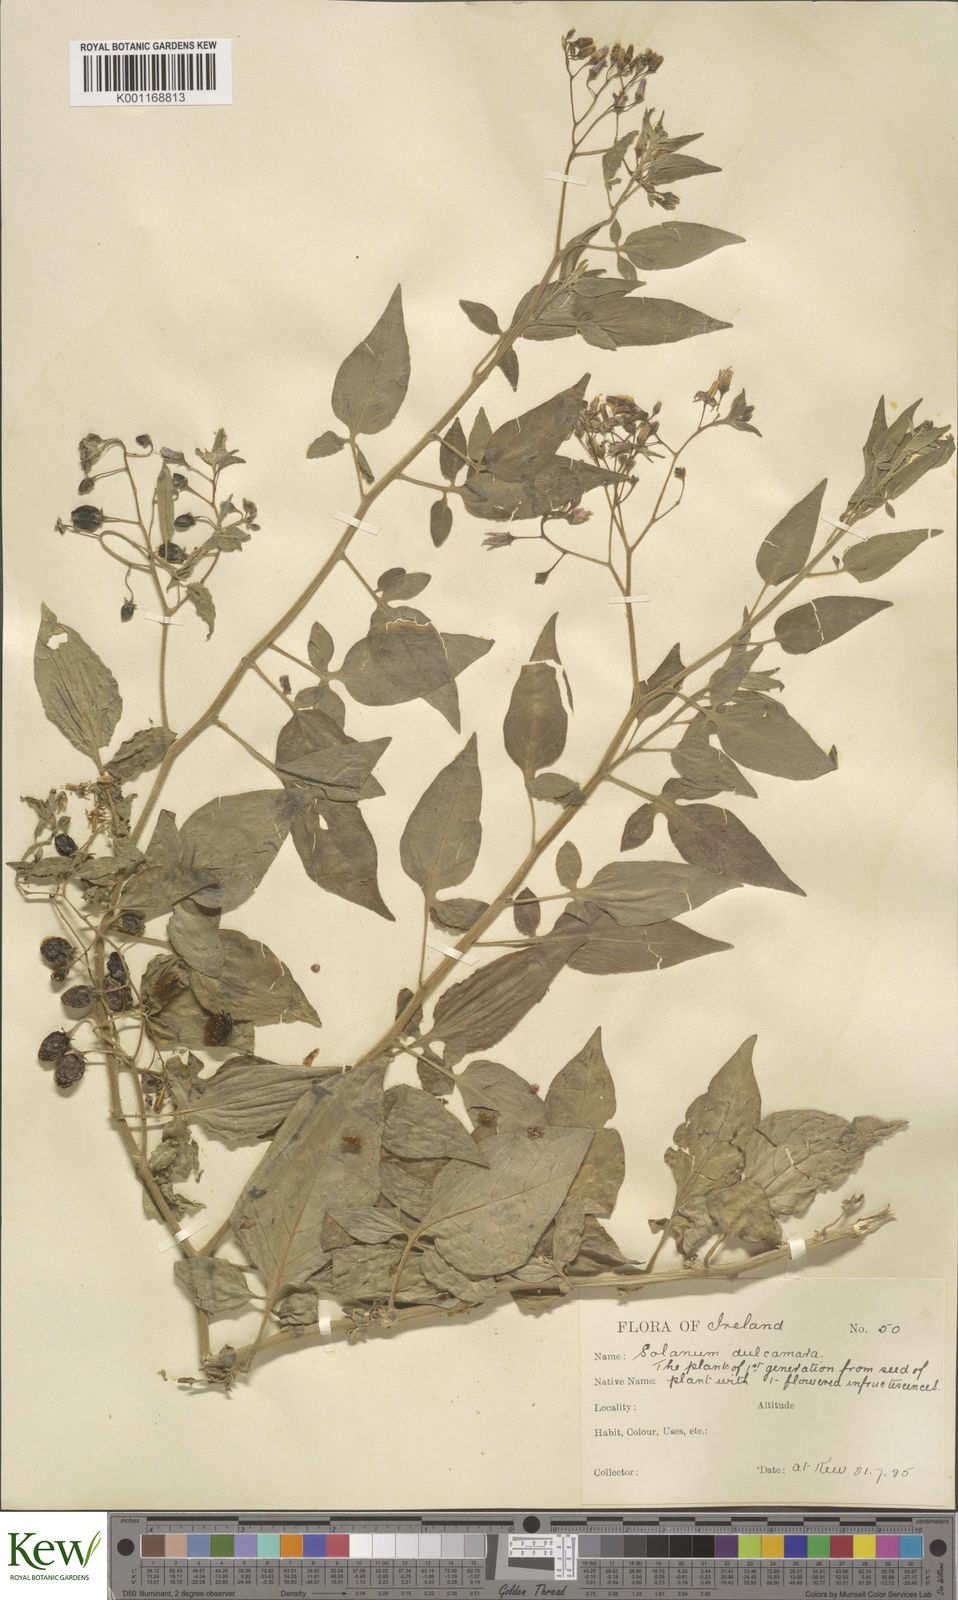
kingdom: Plantae
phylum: Tracheophyta
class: Magnoliopsida
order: Solanales
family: Solanaceae
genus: Solanum
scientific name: Solanum dulcamara
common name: Climbing nightshade
